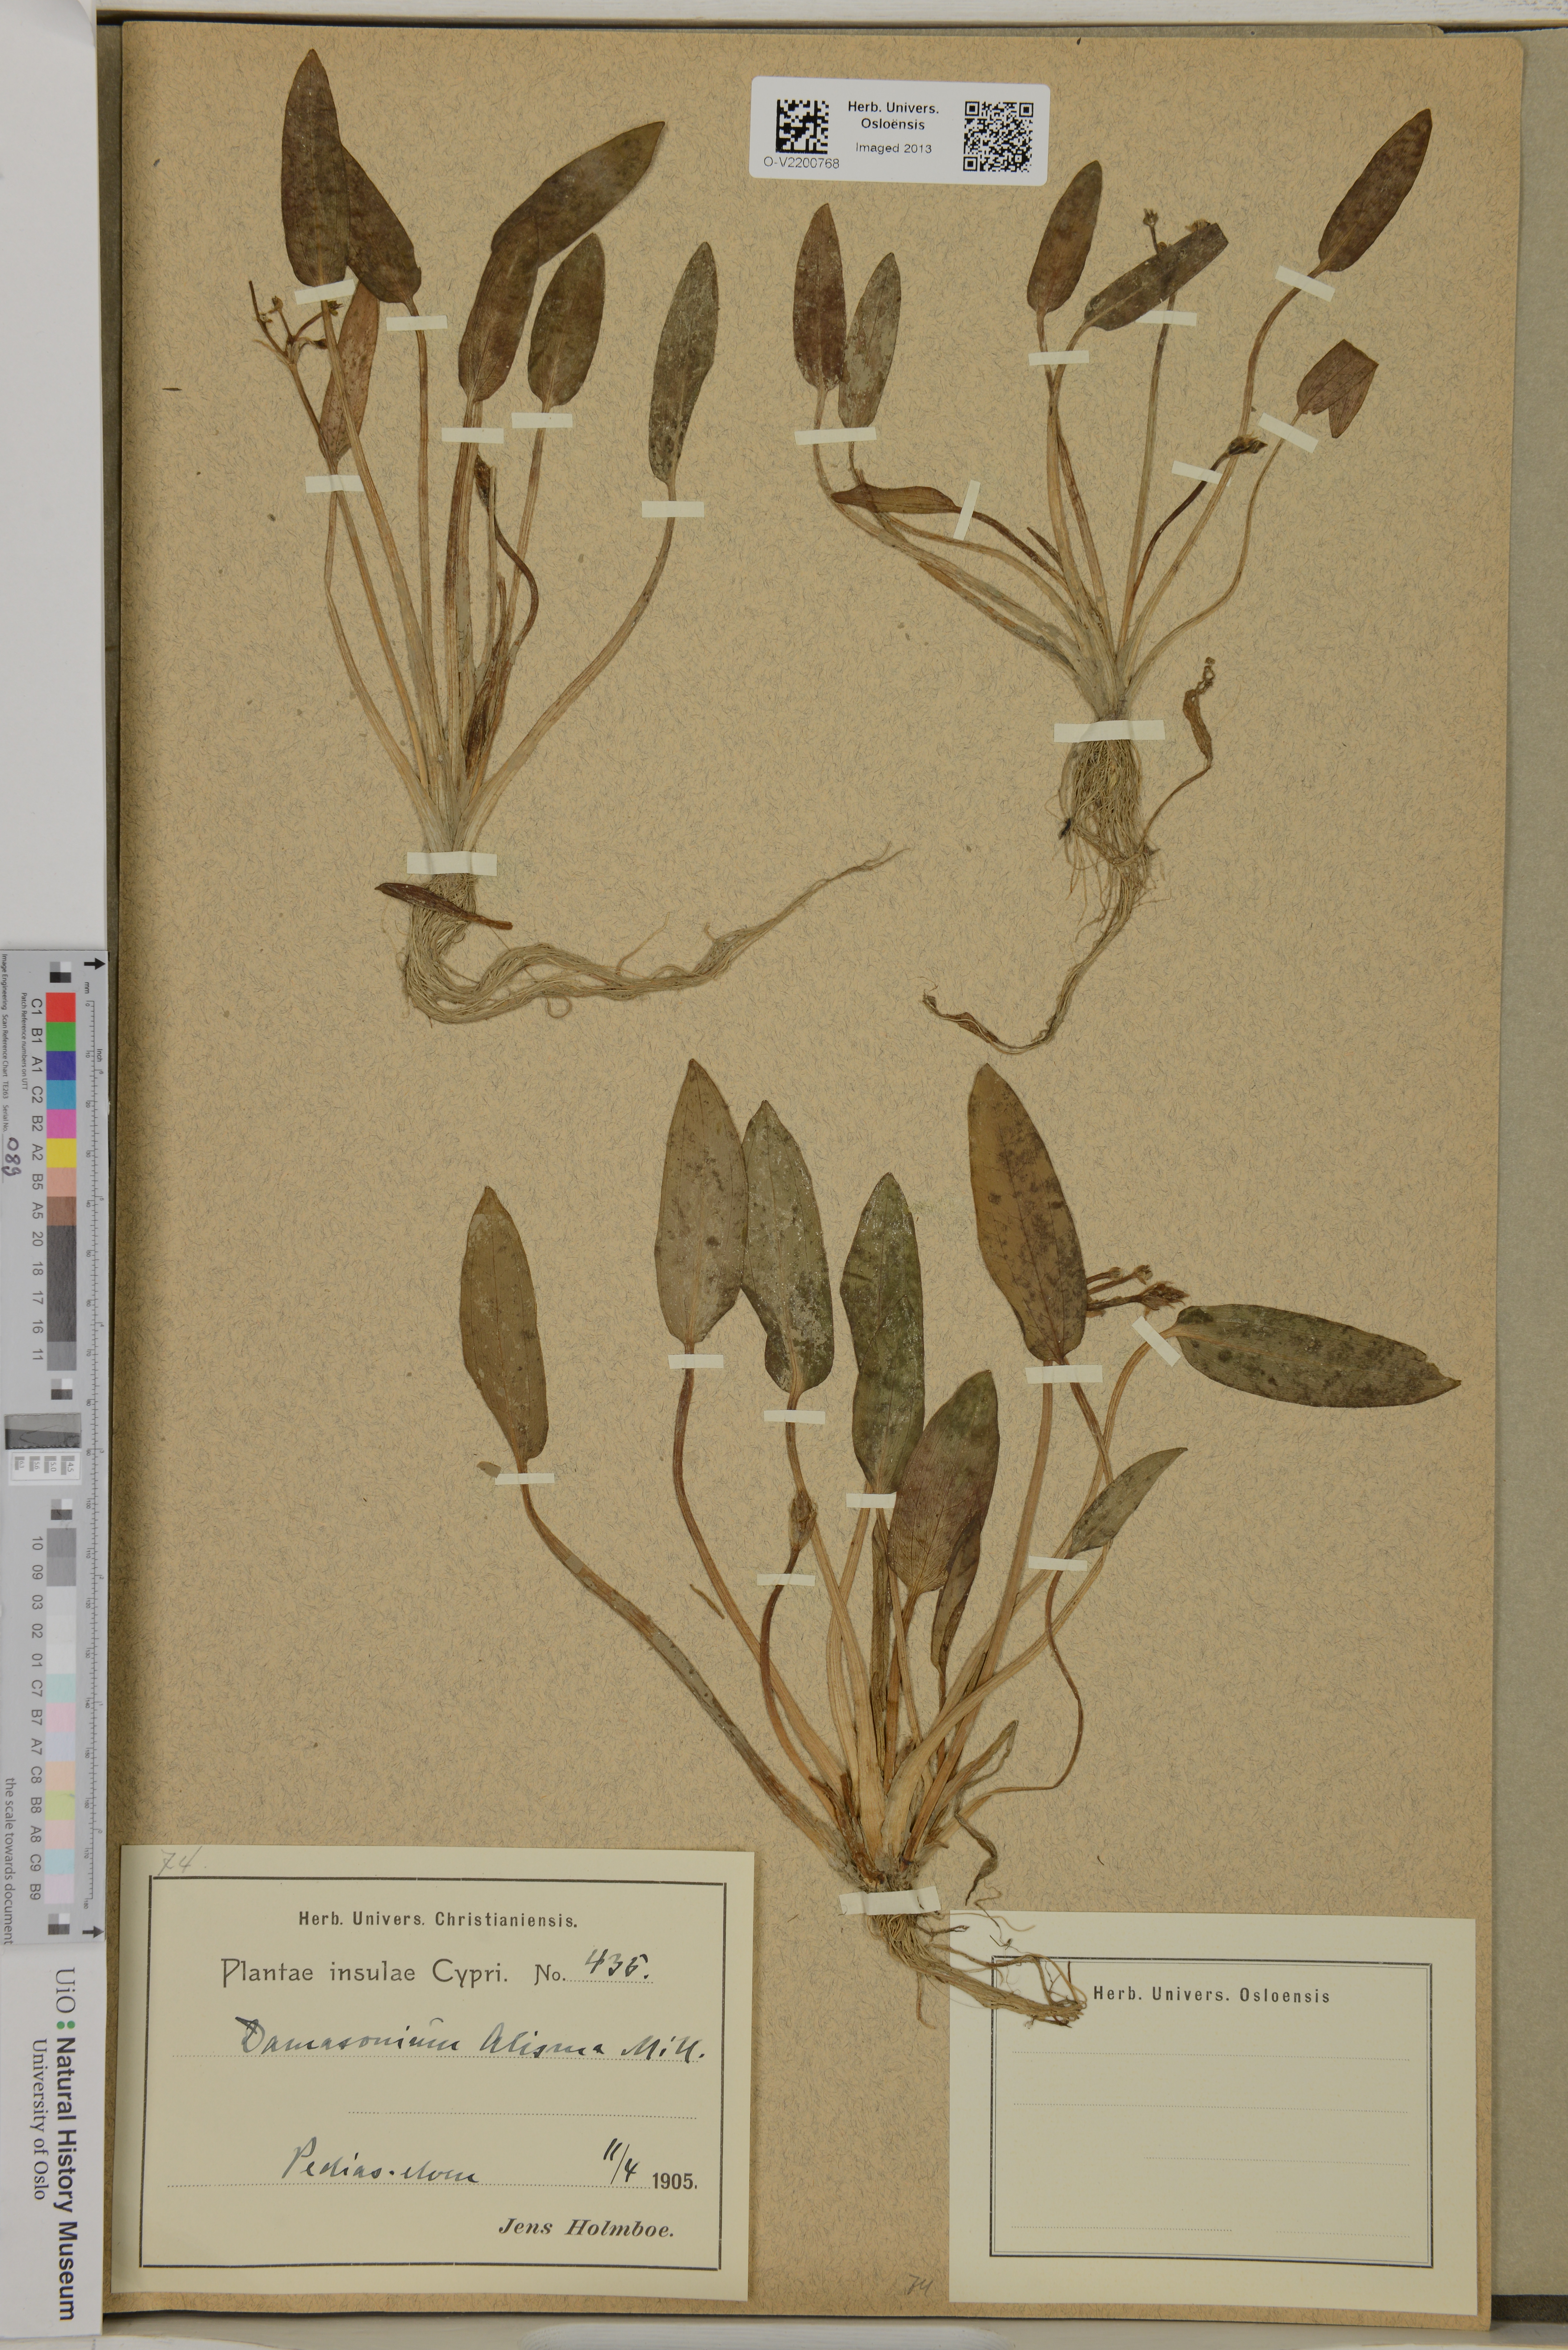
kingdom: Plantae
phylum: Tracheophyta
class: Liliopsida
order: Alismatales
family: Alismataceae
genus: Damasonium
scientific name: Damasonium alisma
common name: Starfruit
